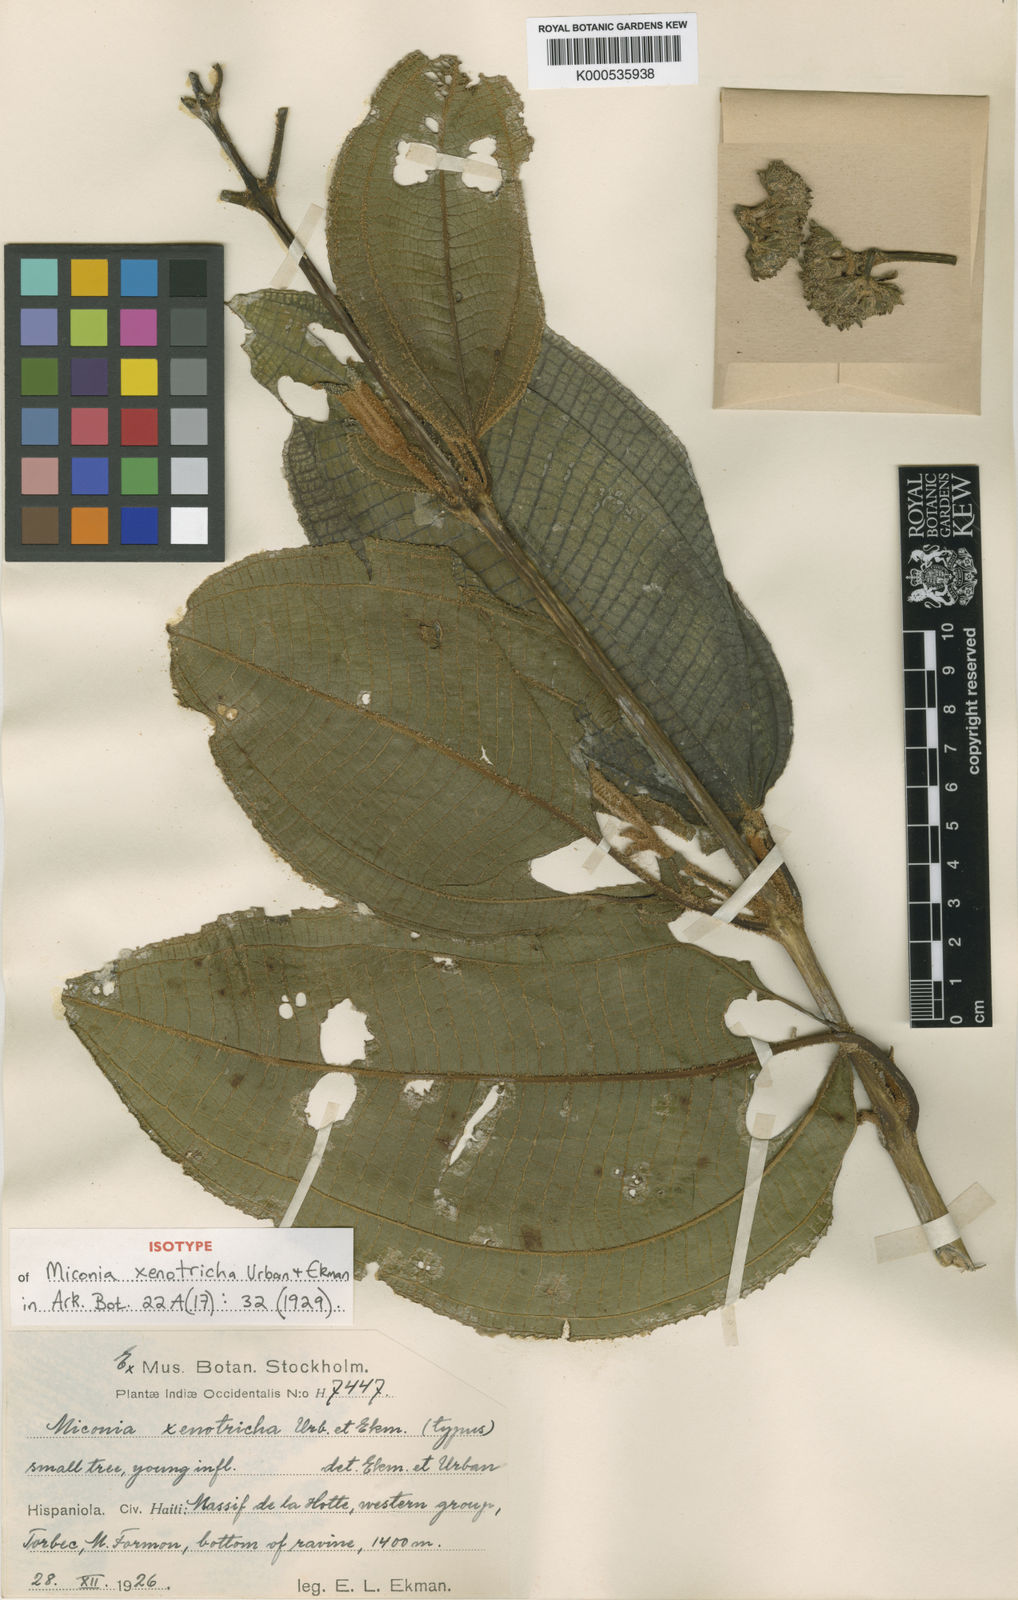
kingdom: Plantae
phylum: Tracheophyta
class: Magnoliopsida
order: Myrtales
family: Melastomataceae
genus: Miconia
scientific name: Miconia xenotricha
